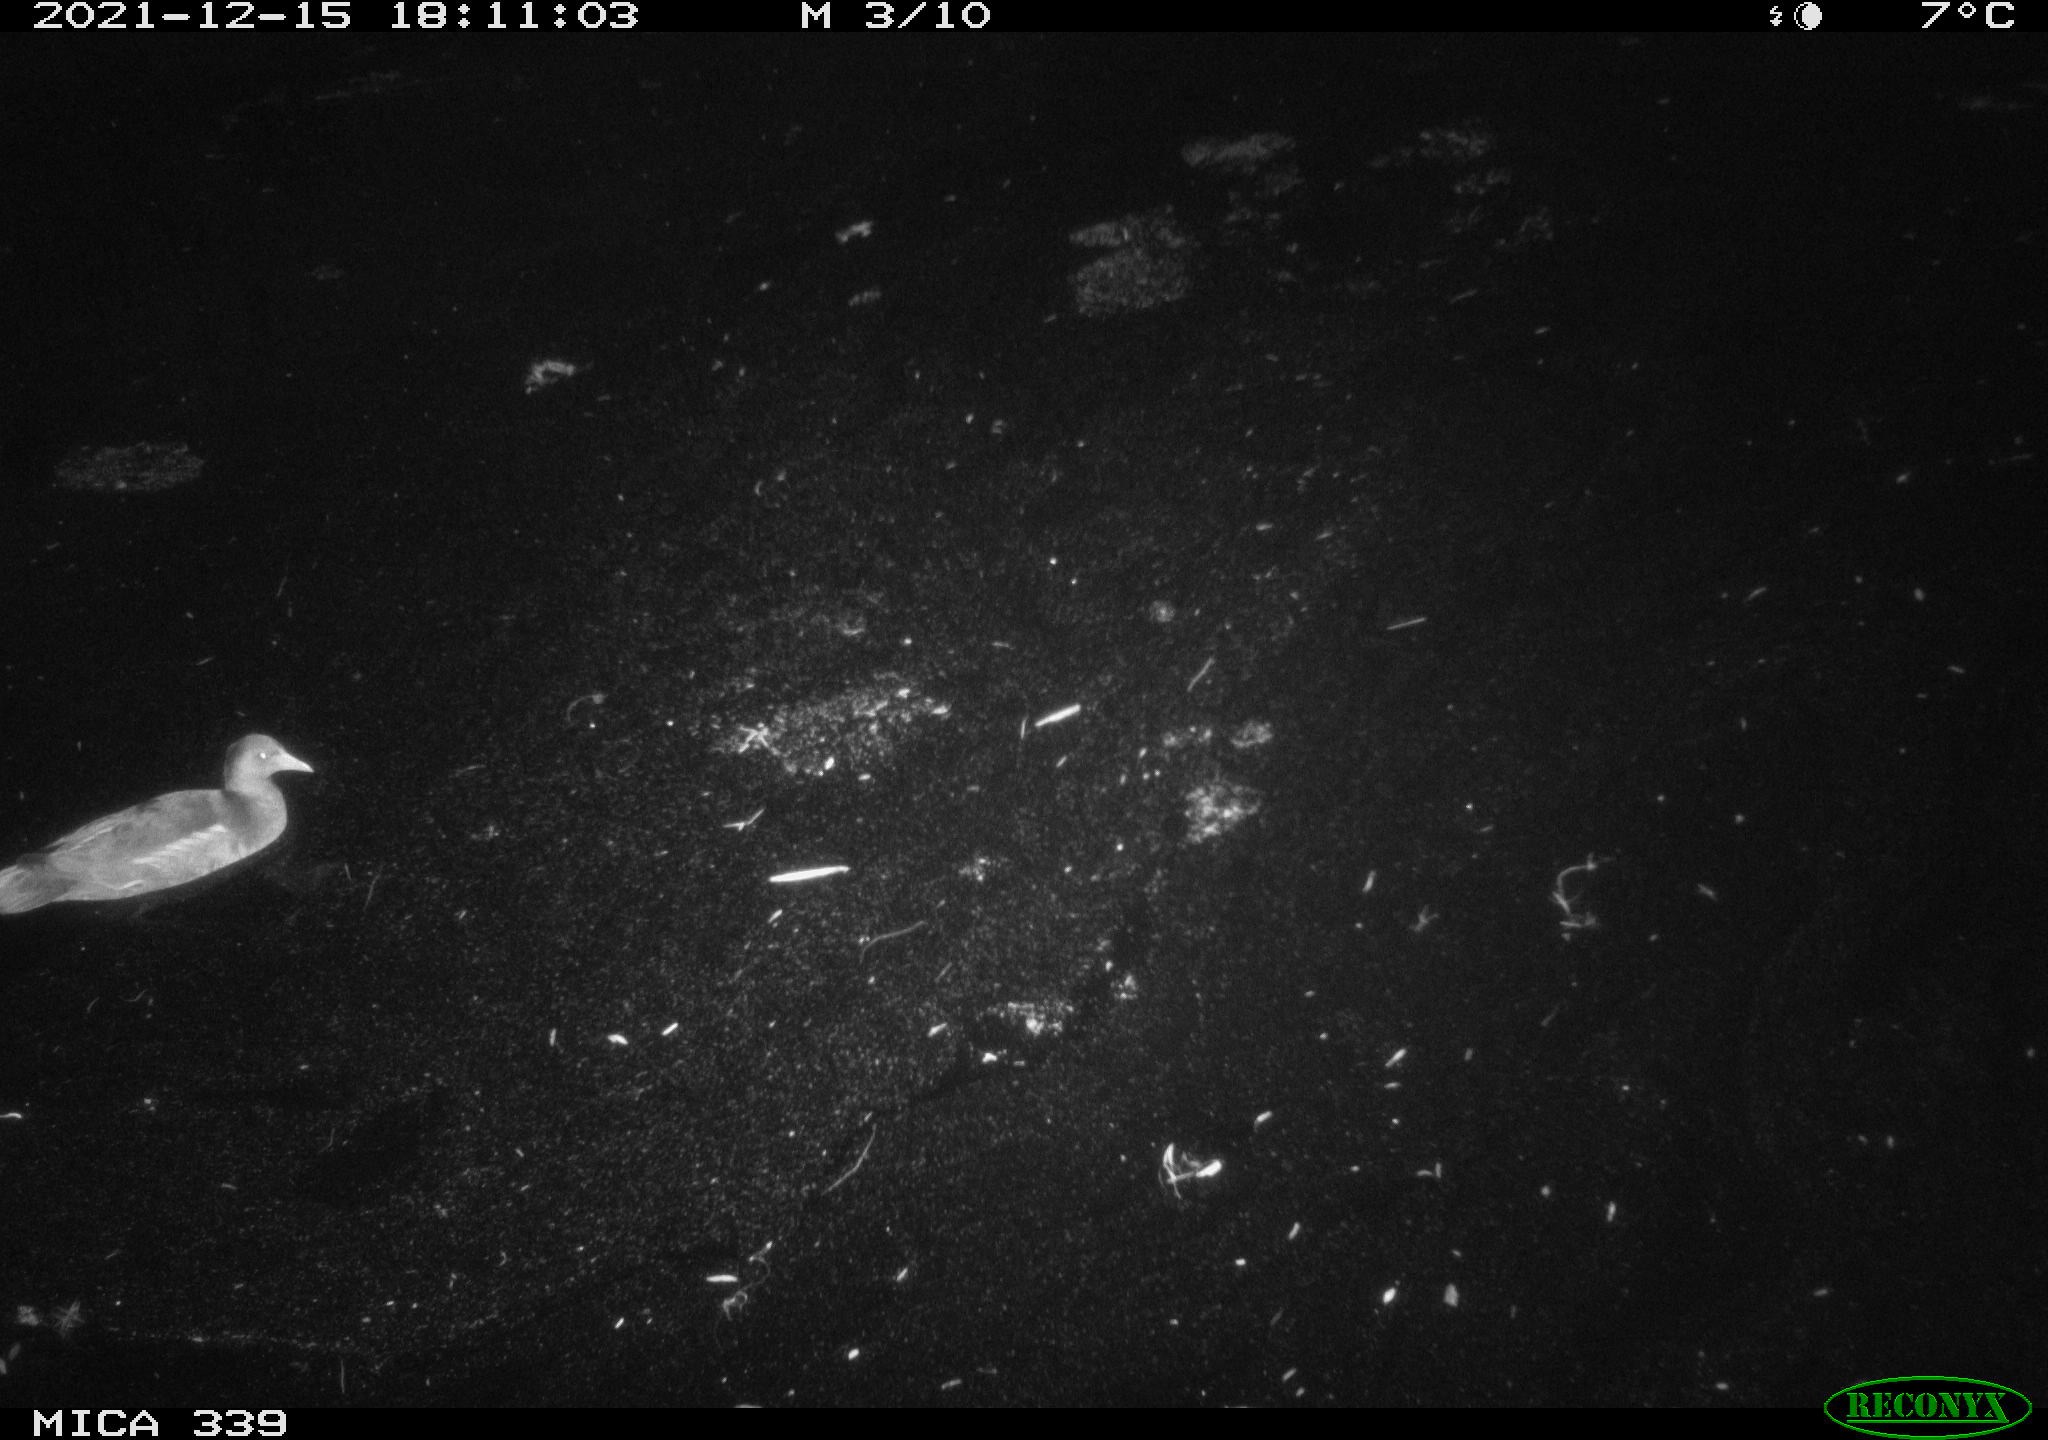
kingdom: Animalia
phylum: Chordata
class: Aves
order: Gruiformes
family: Rallidae
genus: Gallinula
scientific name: Gallinula chloropus
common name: Common moorhen
